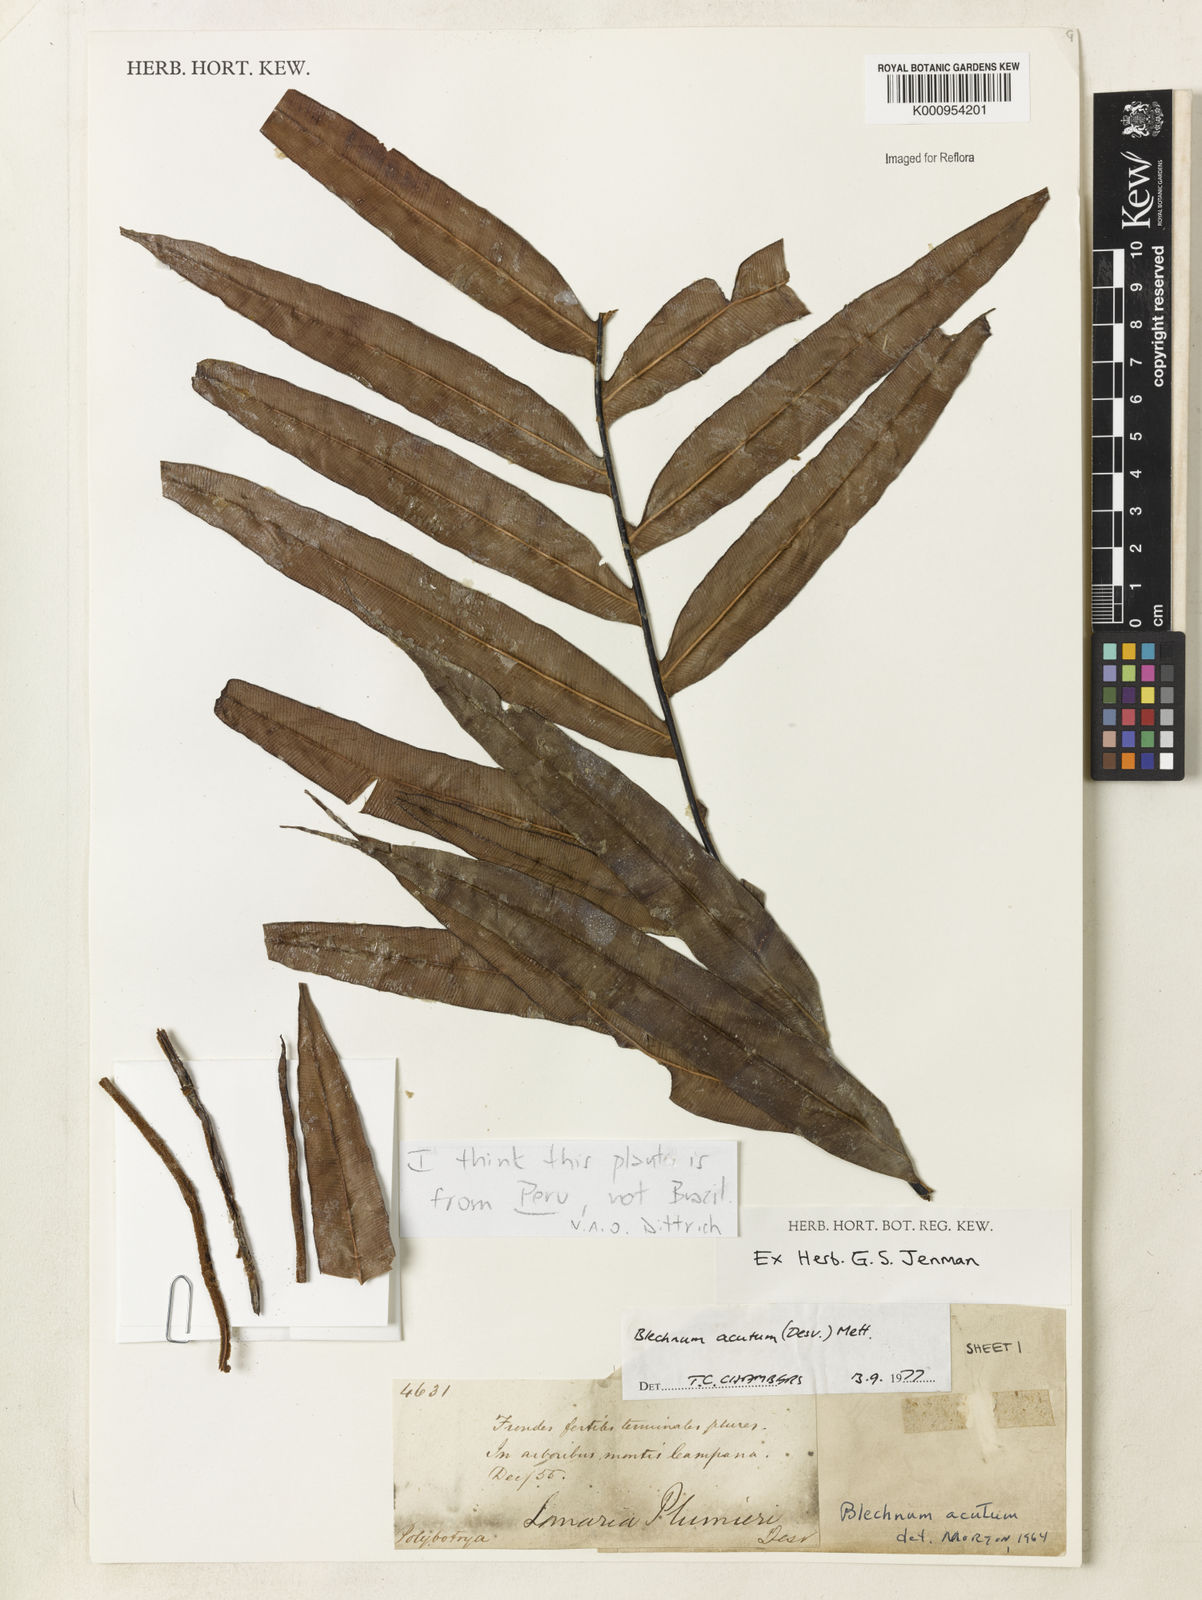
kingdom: Plantae
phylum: Tracheophyta
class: Polypodiopsida
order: Polypodiales
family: Blechnaceae
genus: Lomaridium
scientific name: Lomaridium acutum
